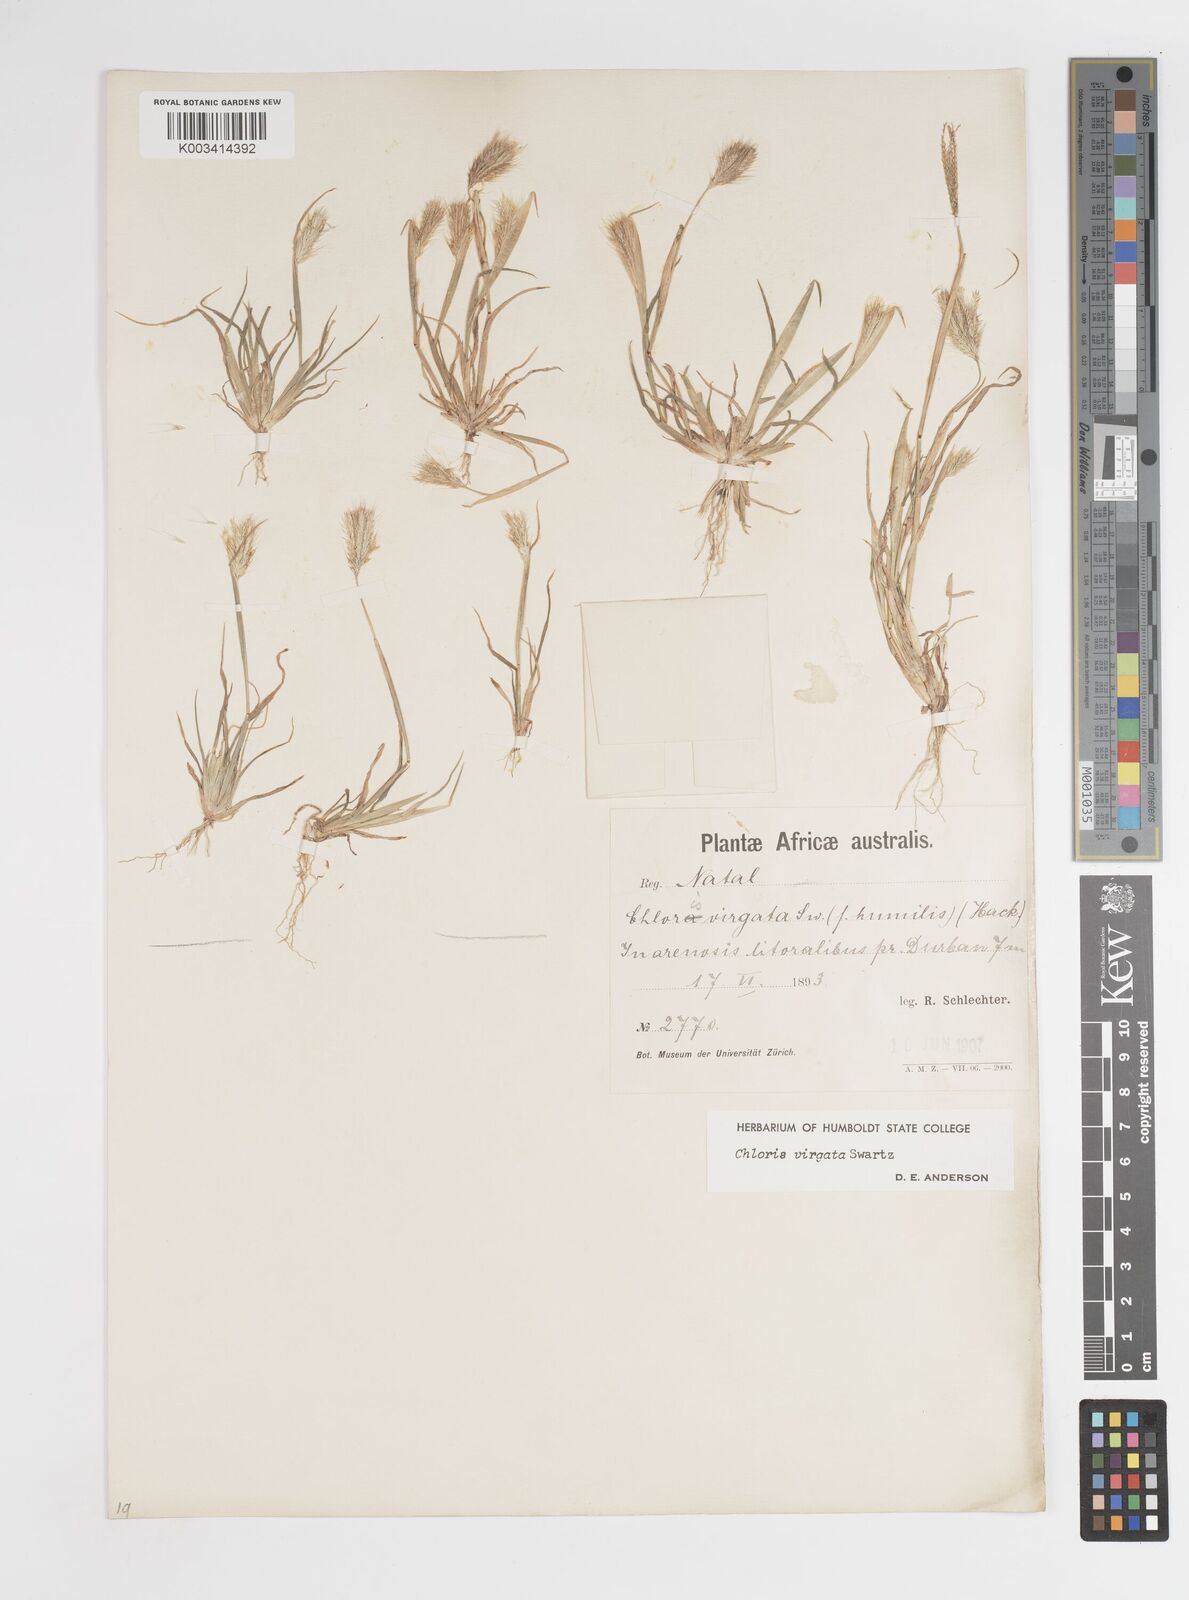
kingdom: Plantae
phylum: Tracheophyta
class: Liliopsida
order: Poales
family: Poaceae
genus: Chloris
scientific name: Chloris virgata
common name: Feathery rhodes-grass
